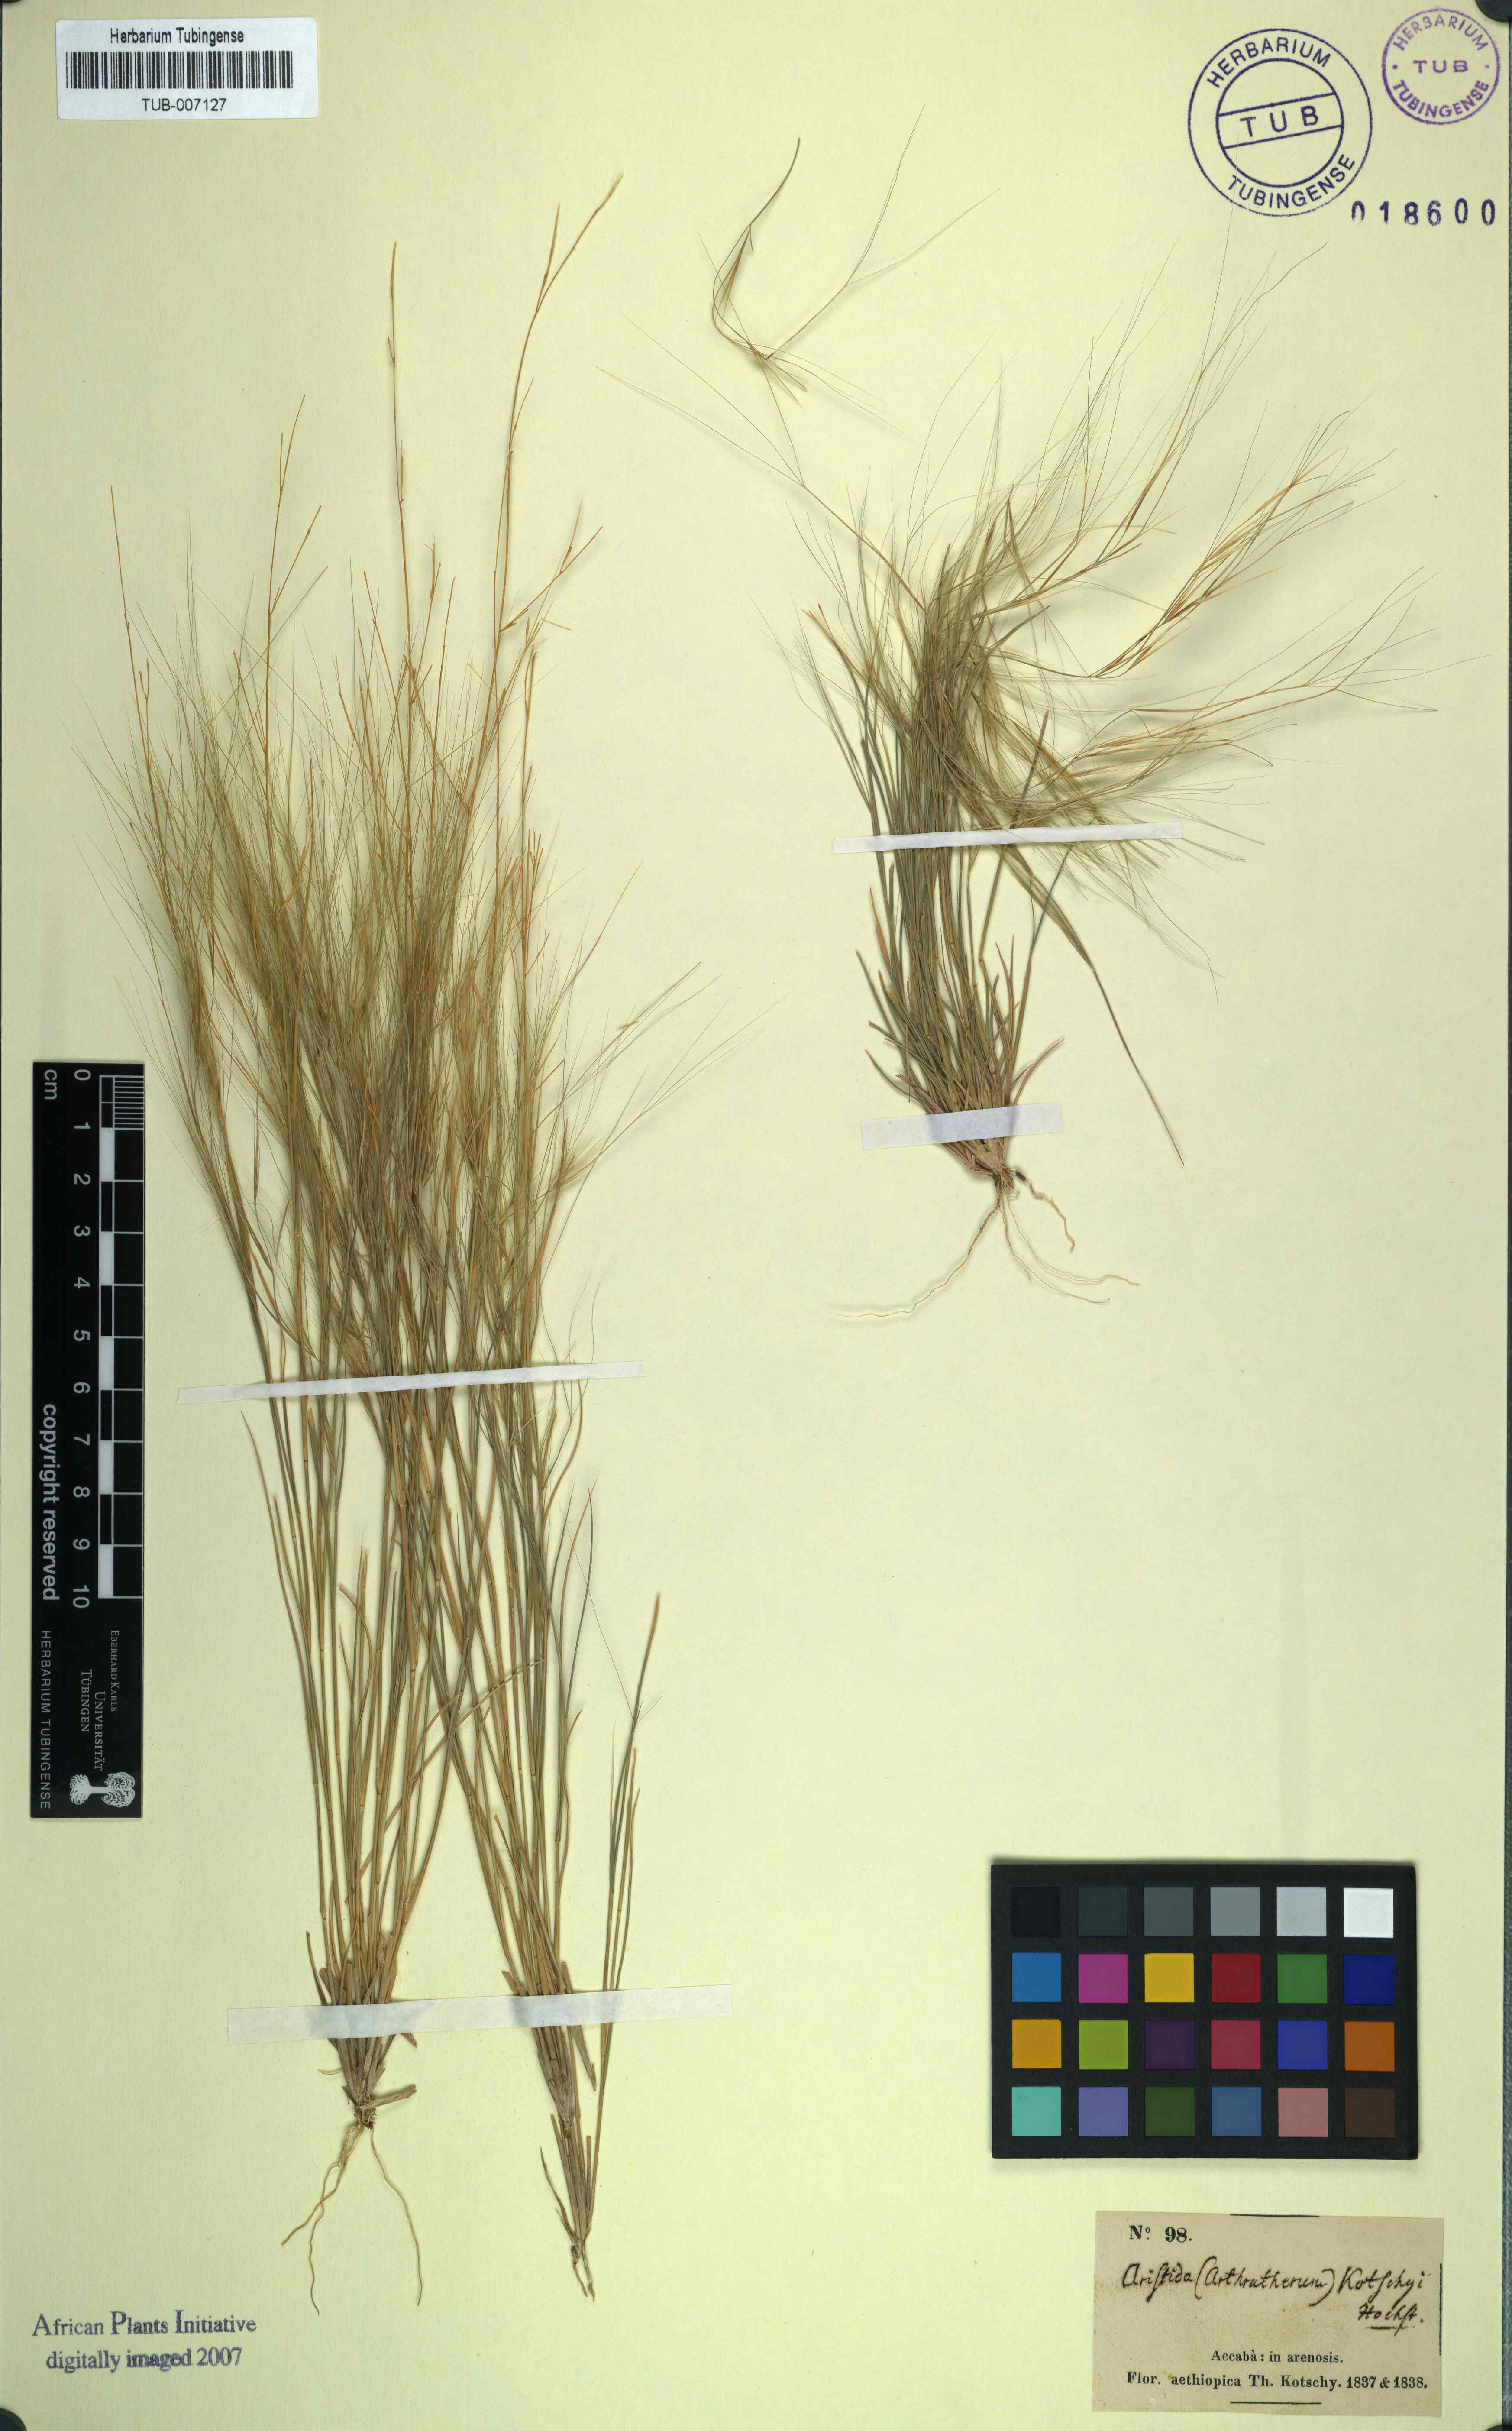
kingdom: Plantae
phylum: Tracheophyta
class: Liliopsida
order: Poales
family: Poaceae
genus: Aristida
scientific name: Aristida funiculata
